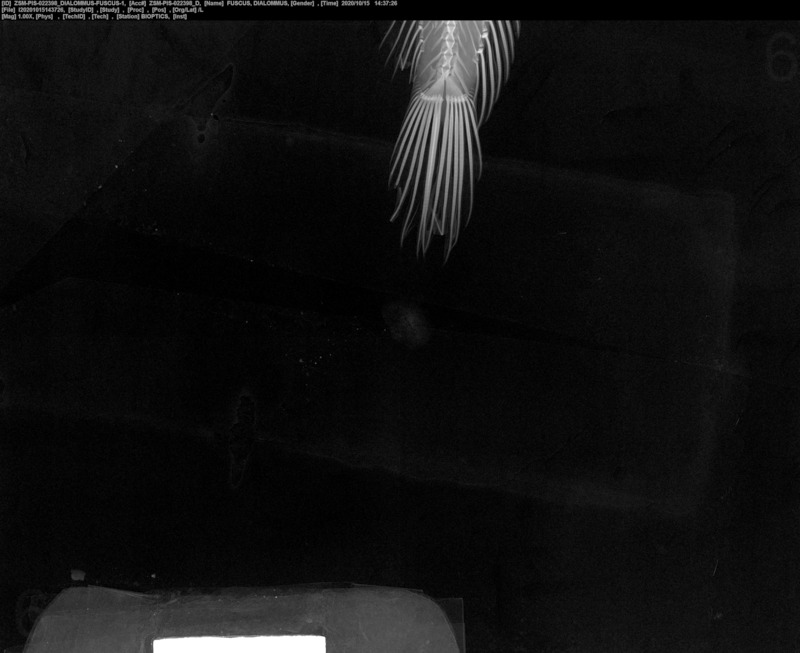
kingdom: Animalia
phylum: Chordata
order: Perciformes
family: Labrisomidae
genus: Dialommus
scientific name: Dialommus fuscus
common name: Galápagos four-eyed blenny
